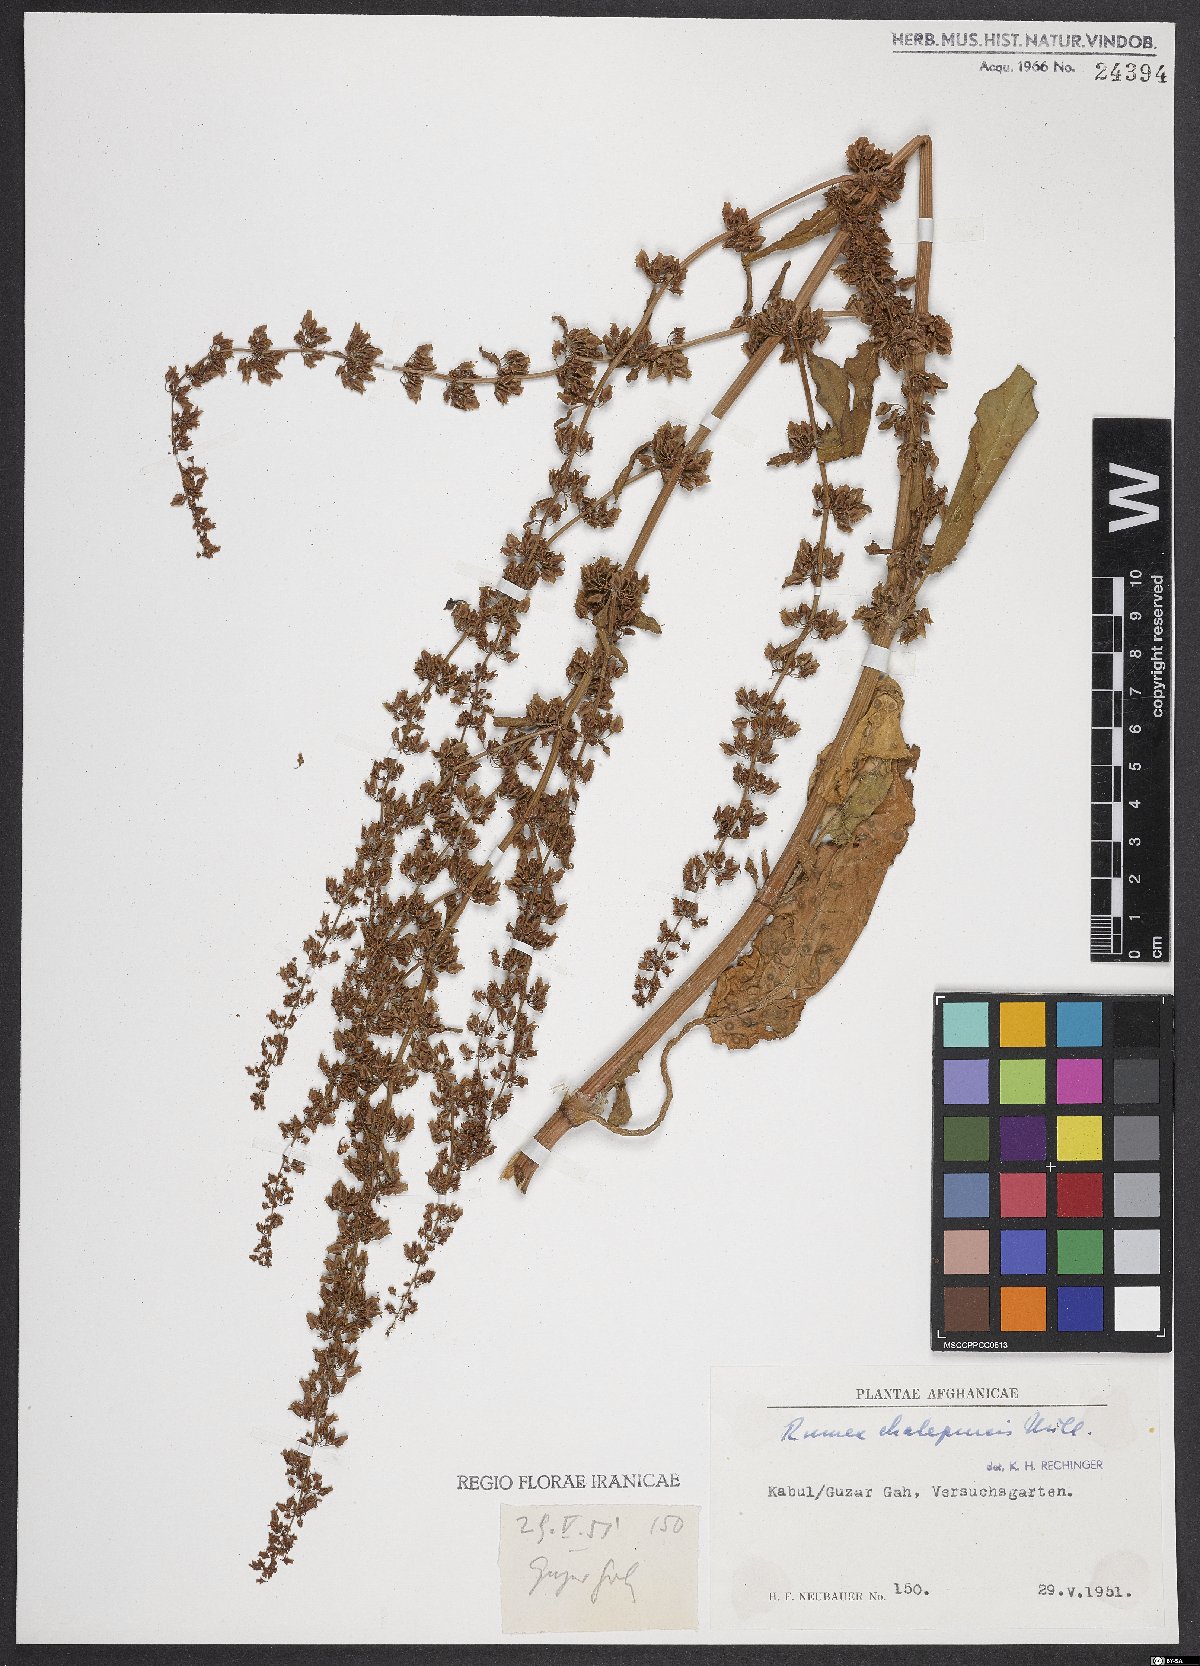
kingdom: Plantae
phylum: Tracheophyta
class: Magnoliopsida
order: Caryophyllales
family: Polygonaceae
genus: Rumex
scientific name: Rumex chalepensis
